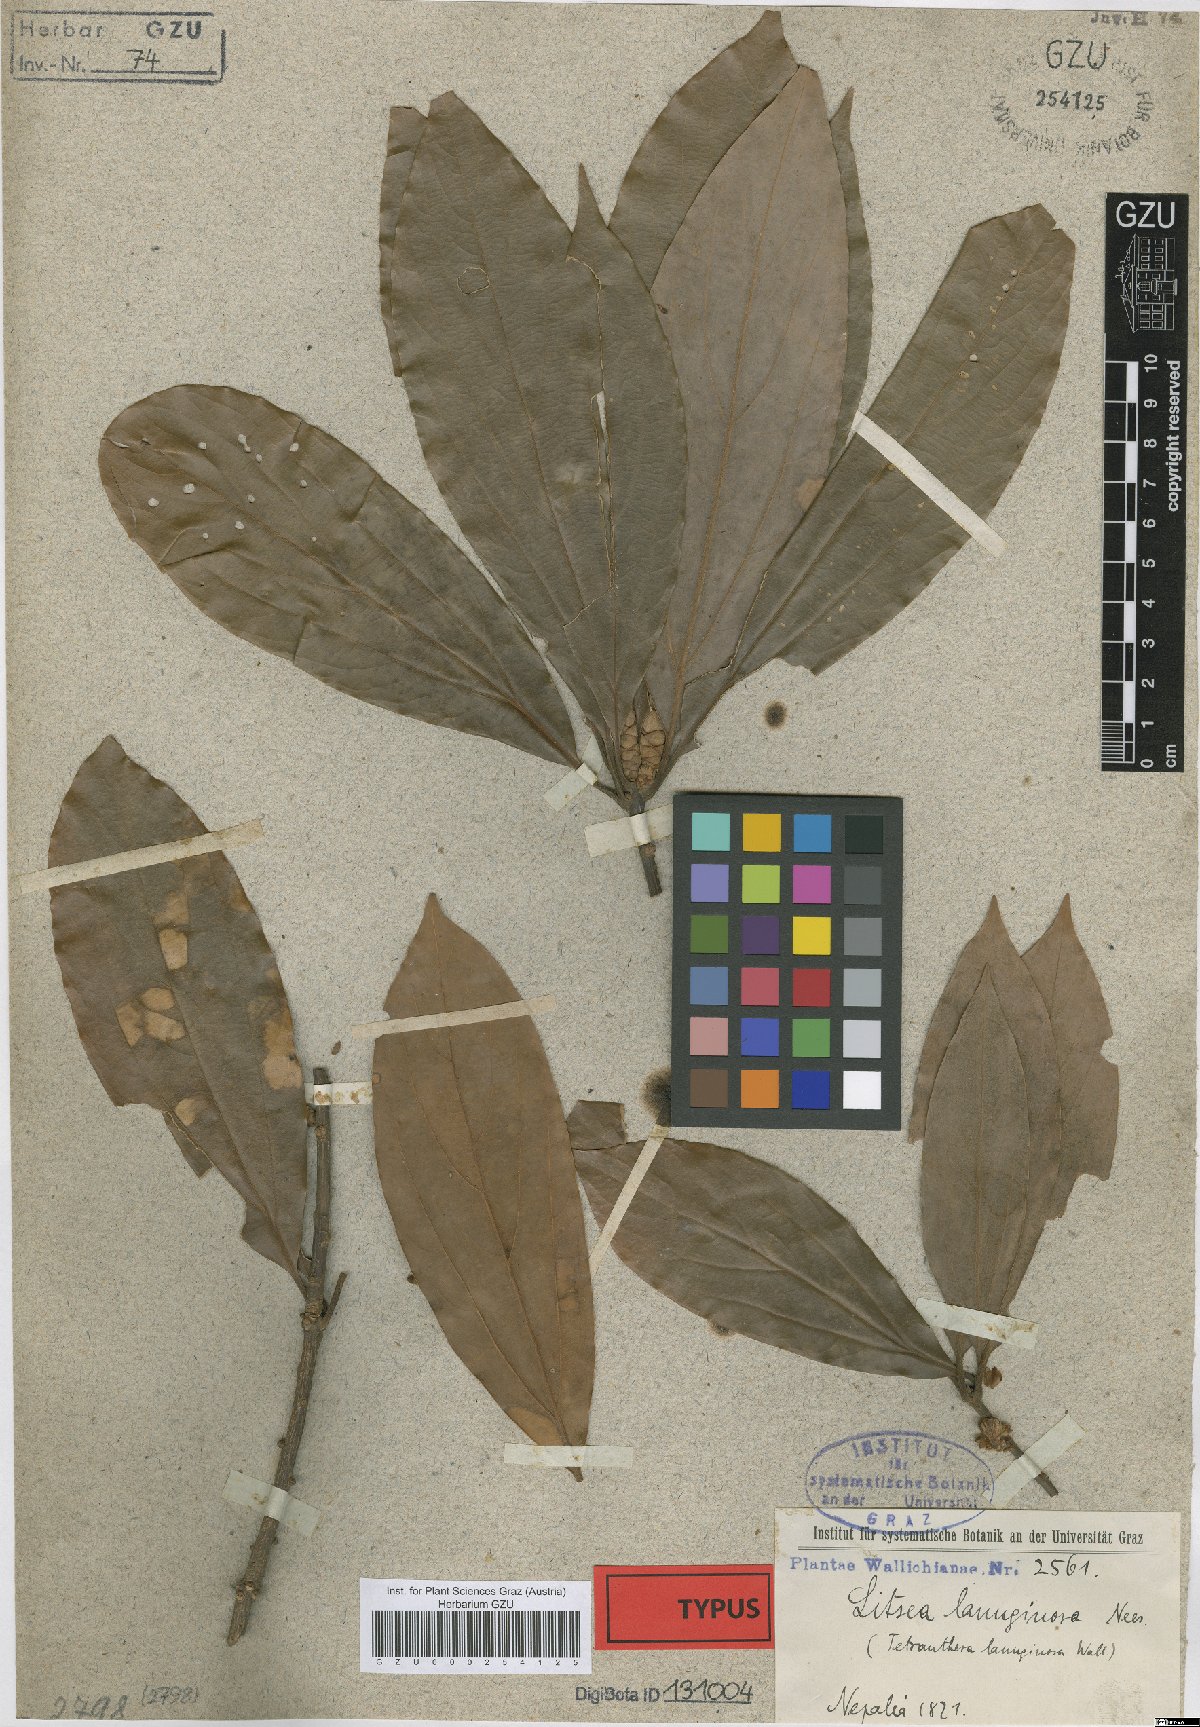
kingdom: Plantae
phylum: Tracheophyta
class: Magnoliopsida
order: Laurales
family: Lauraceae
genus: Neolitsea
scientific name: Neolitsea cuipala
